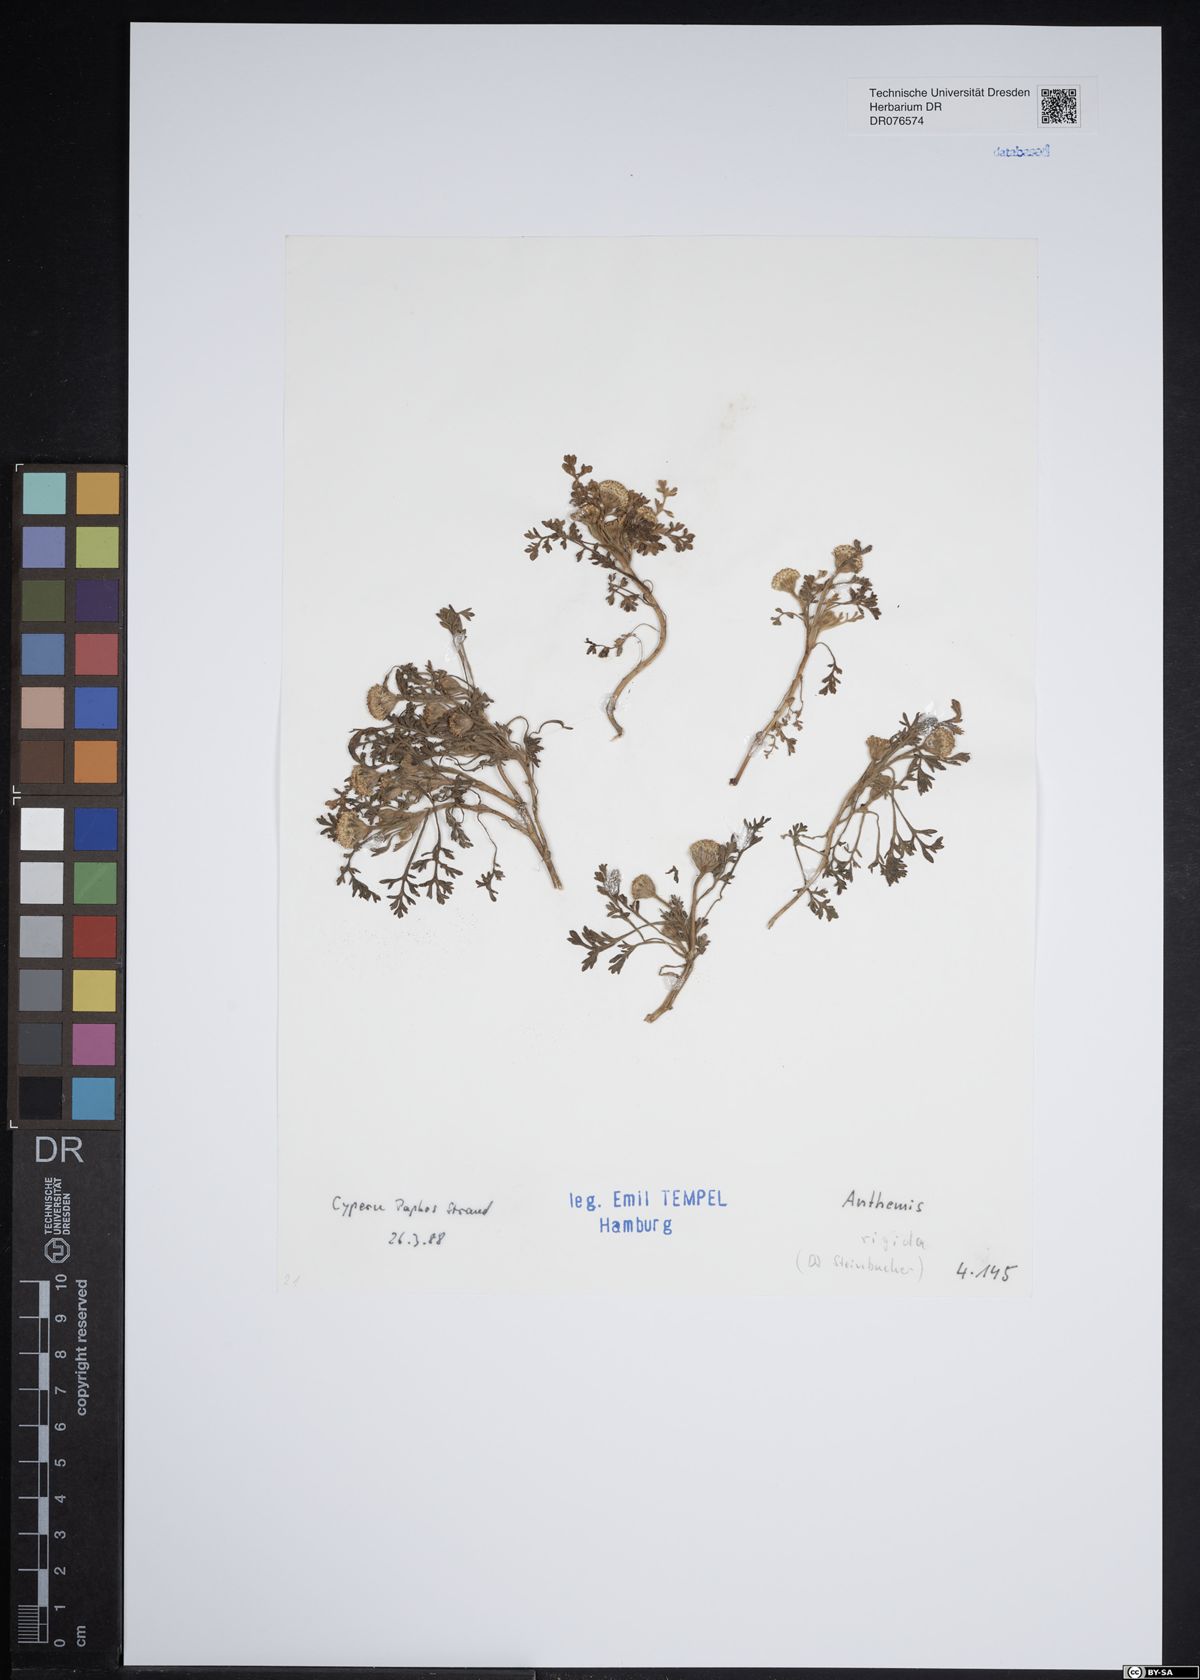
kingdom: Plantae
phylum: Tracheophyta
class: Magnoliopsida
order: Asterales
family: Asteraceae
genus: Anthemis
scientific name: Anthemis rigida
